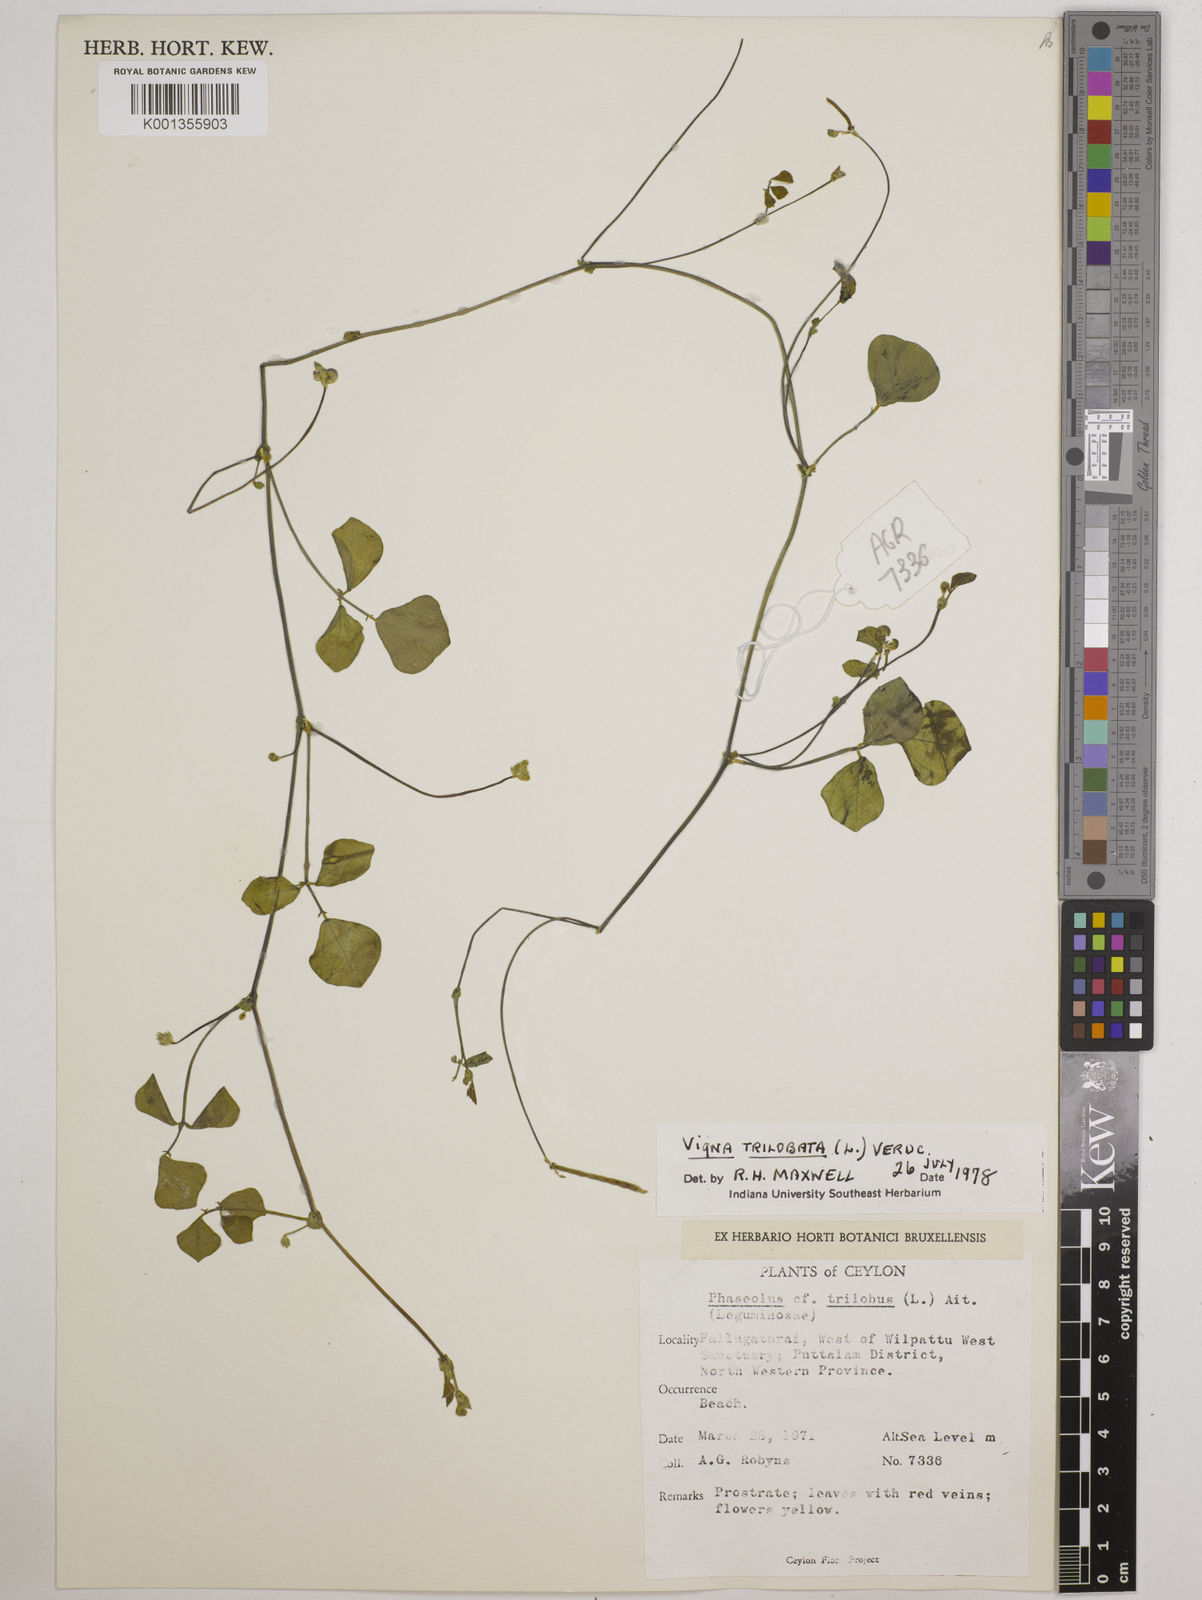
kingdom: Plantae
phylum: Tracheophyta
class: Magnoliopsida
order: Fabales
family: Fabaceae
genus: Vigna
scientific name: Vigna trilobata
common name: Jungli-bean
